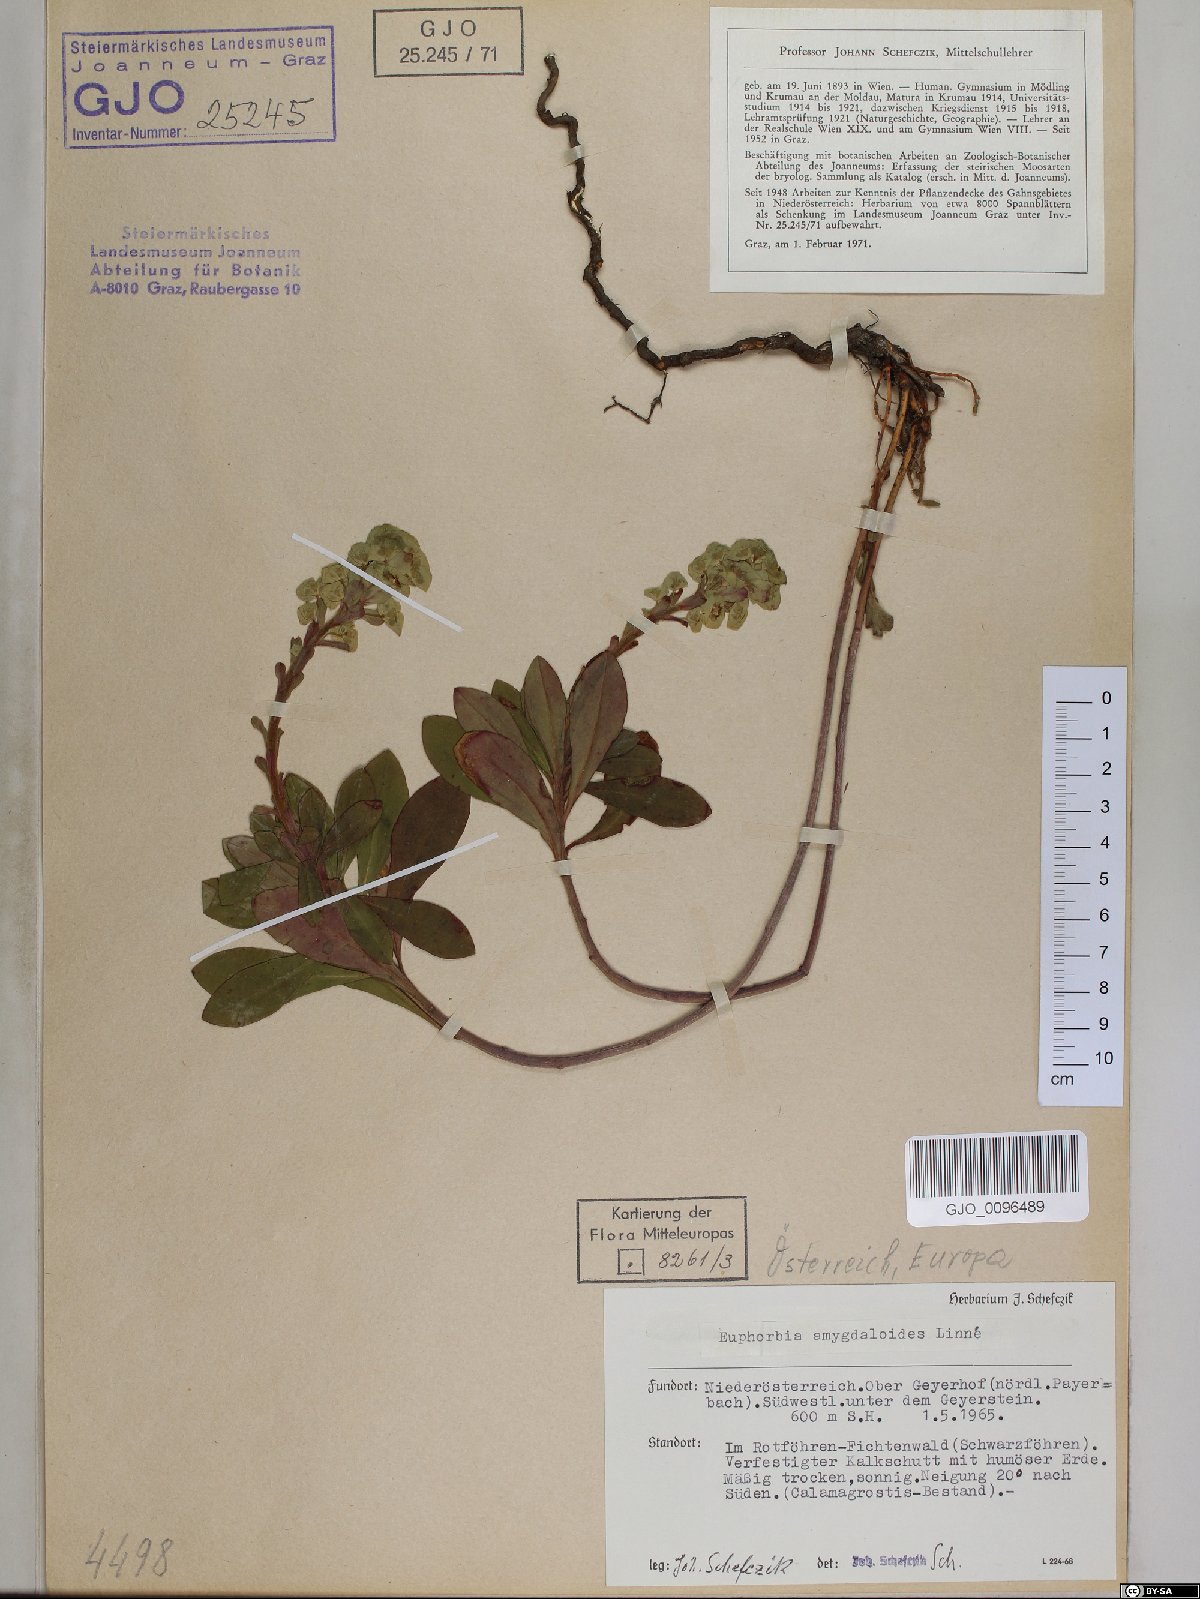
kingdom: Plantae
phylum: Tracheophyta
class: Magnoliopsida
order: Malpighiales
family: Euphorbiaceae
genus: Euphorbia
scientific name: Euphorbia amygdaloides
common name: Wood spurge
